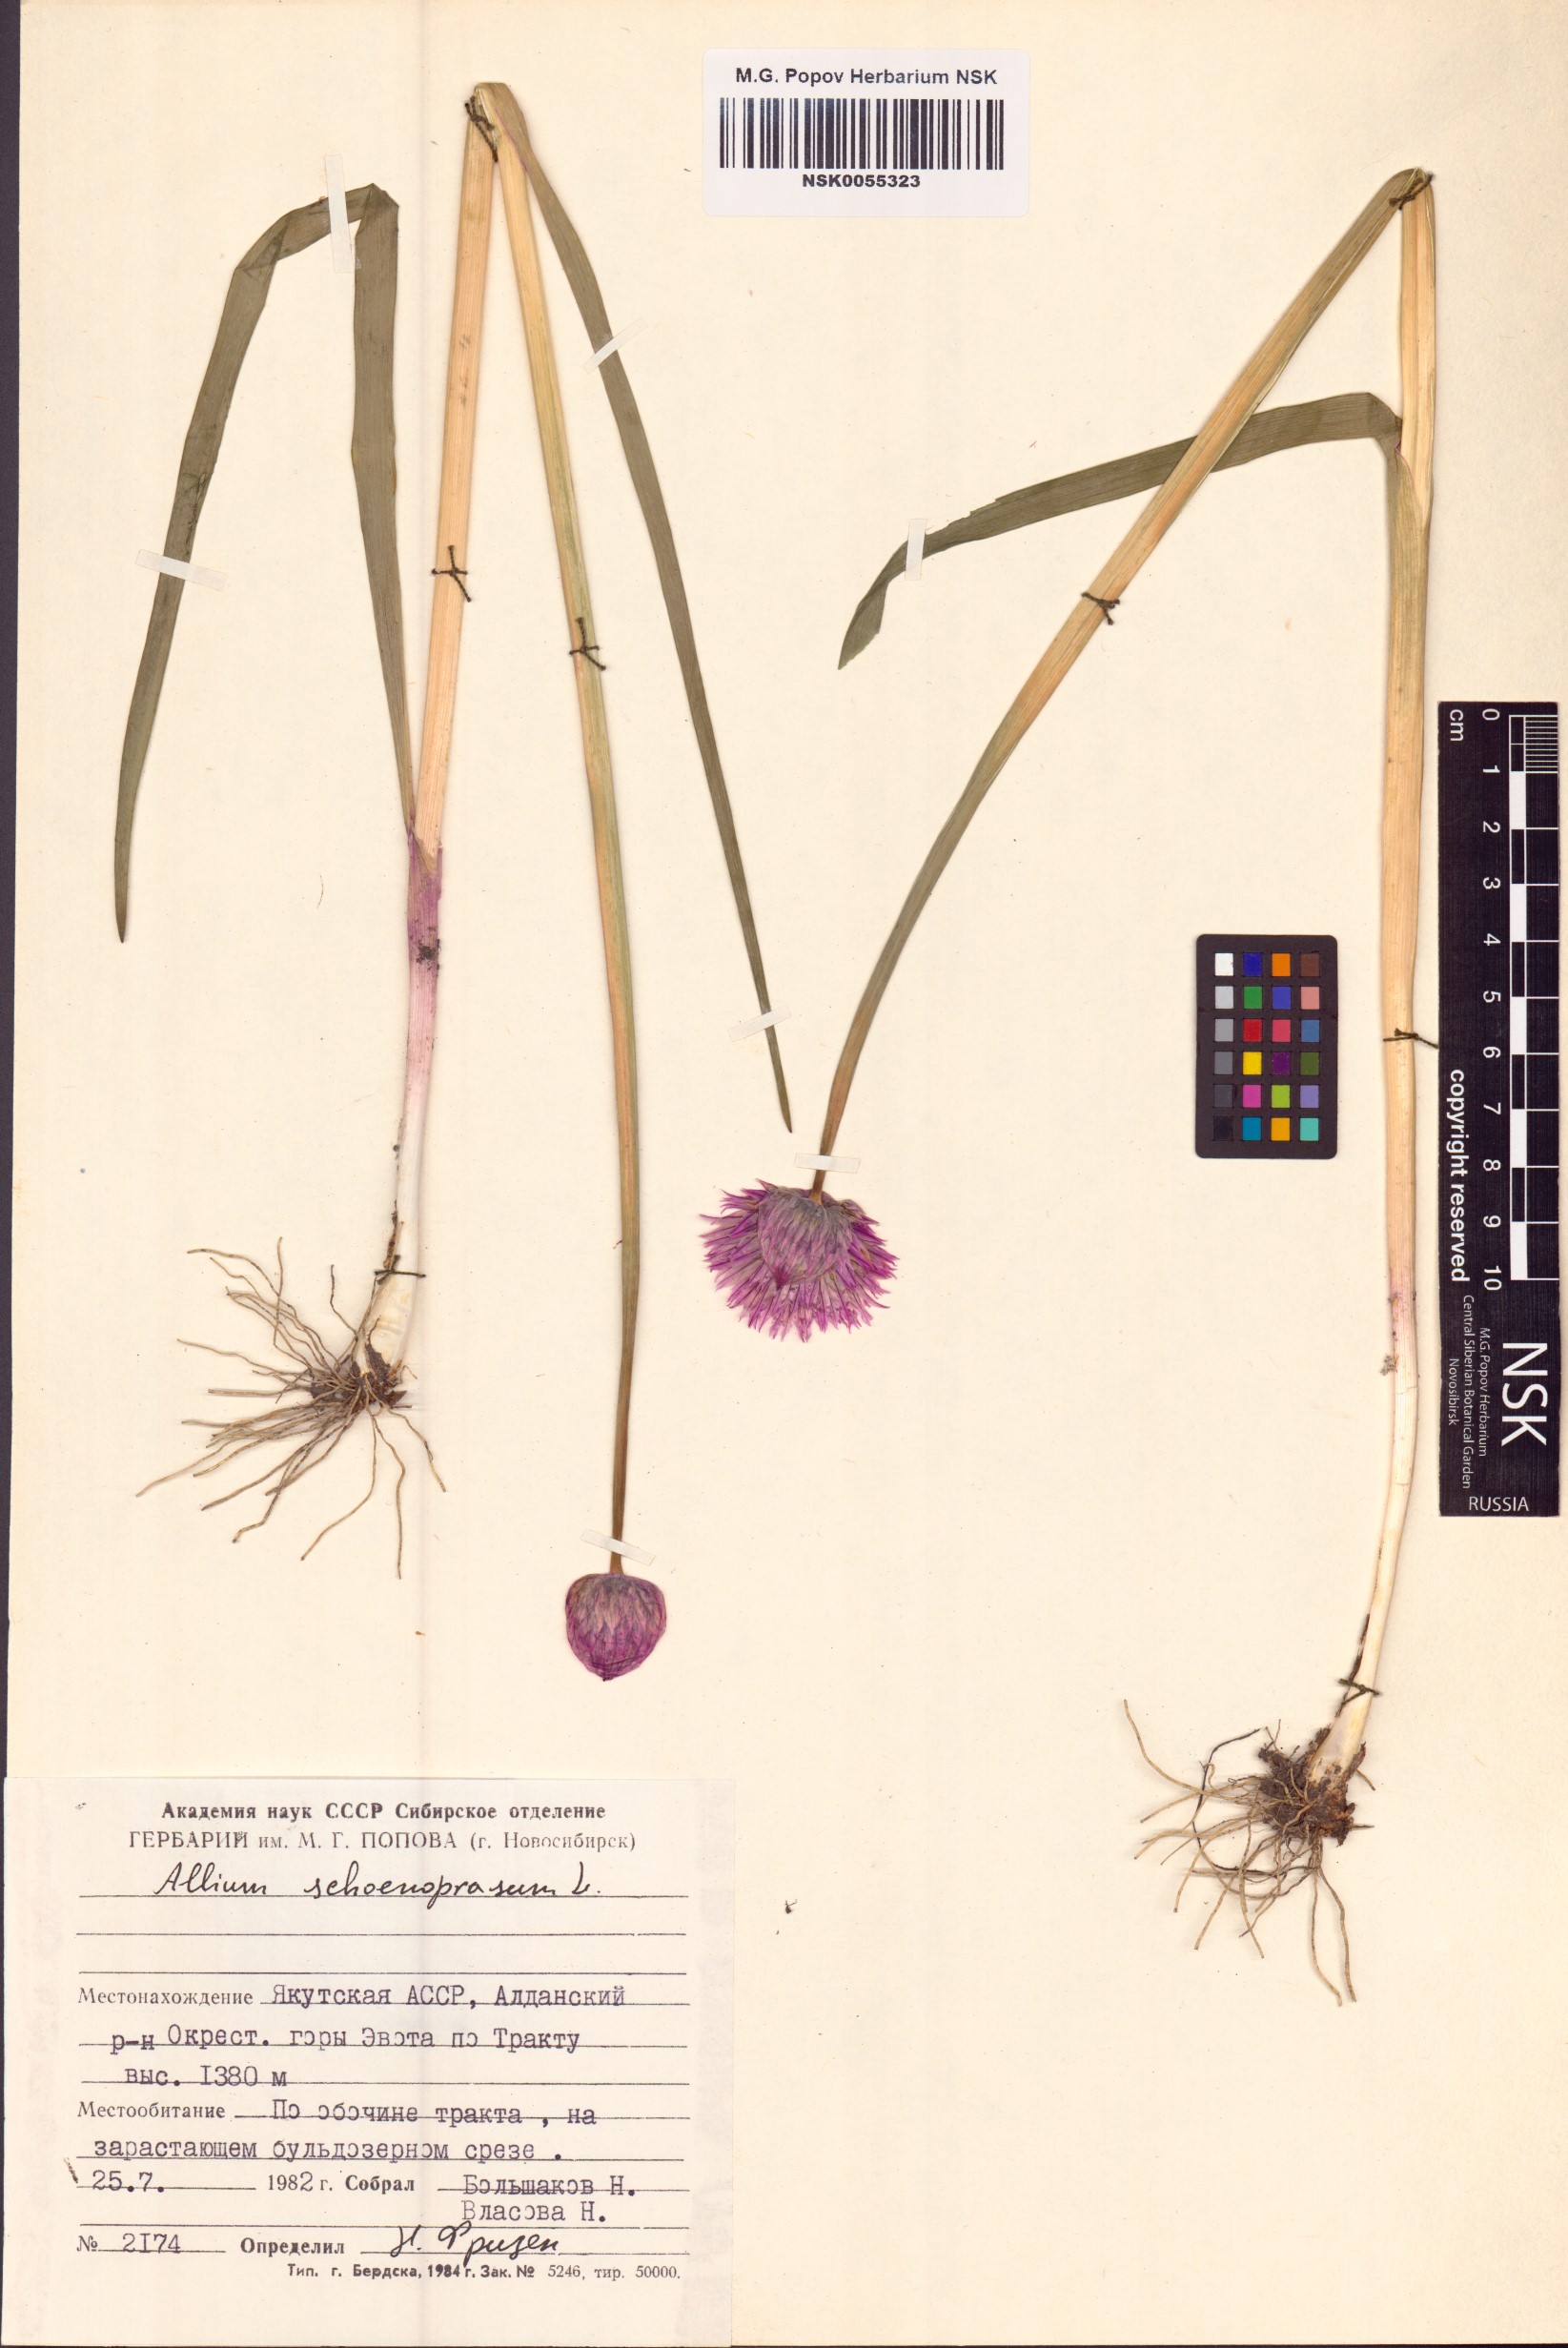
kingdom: Plantae
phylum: Tracheophyta
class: Liliopsida
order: Asparagales
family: Amaryllidaceae
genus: Allium
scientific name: Allium schoenoprasum
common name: Chives
